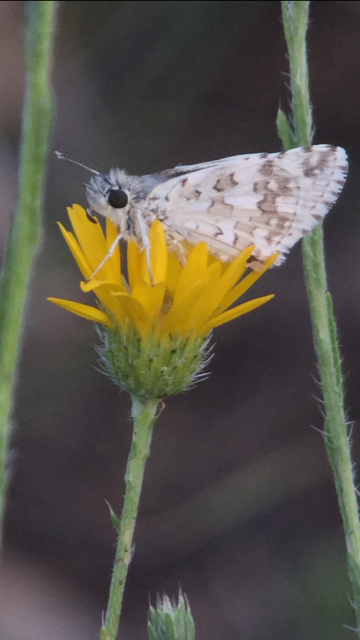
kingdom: Animalia
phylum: Arthropoda
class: Insecta
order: Lepidoptera
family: Hesperiidae
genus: Pyrgus
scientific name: Pyrgus communis
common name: Common Checkered-Skipper
